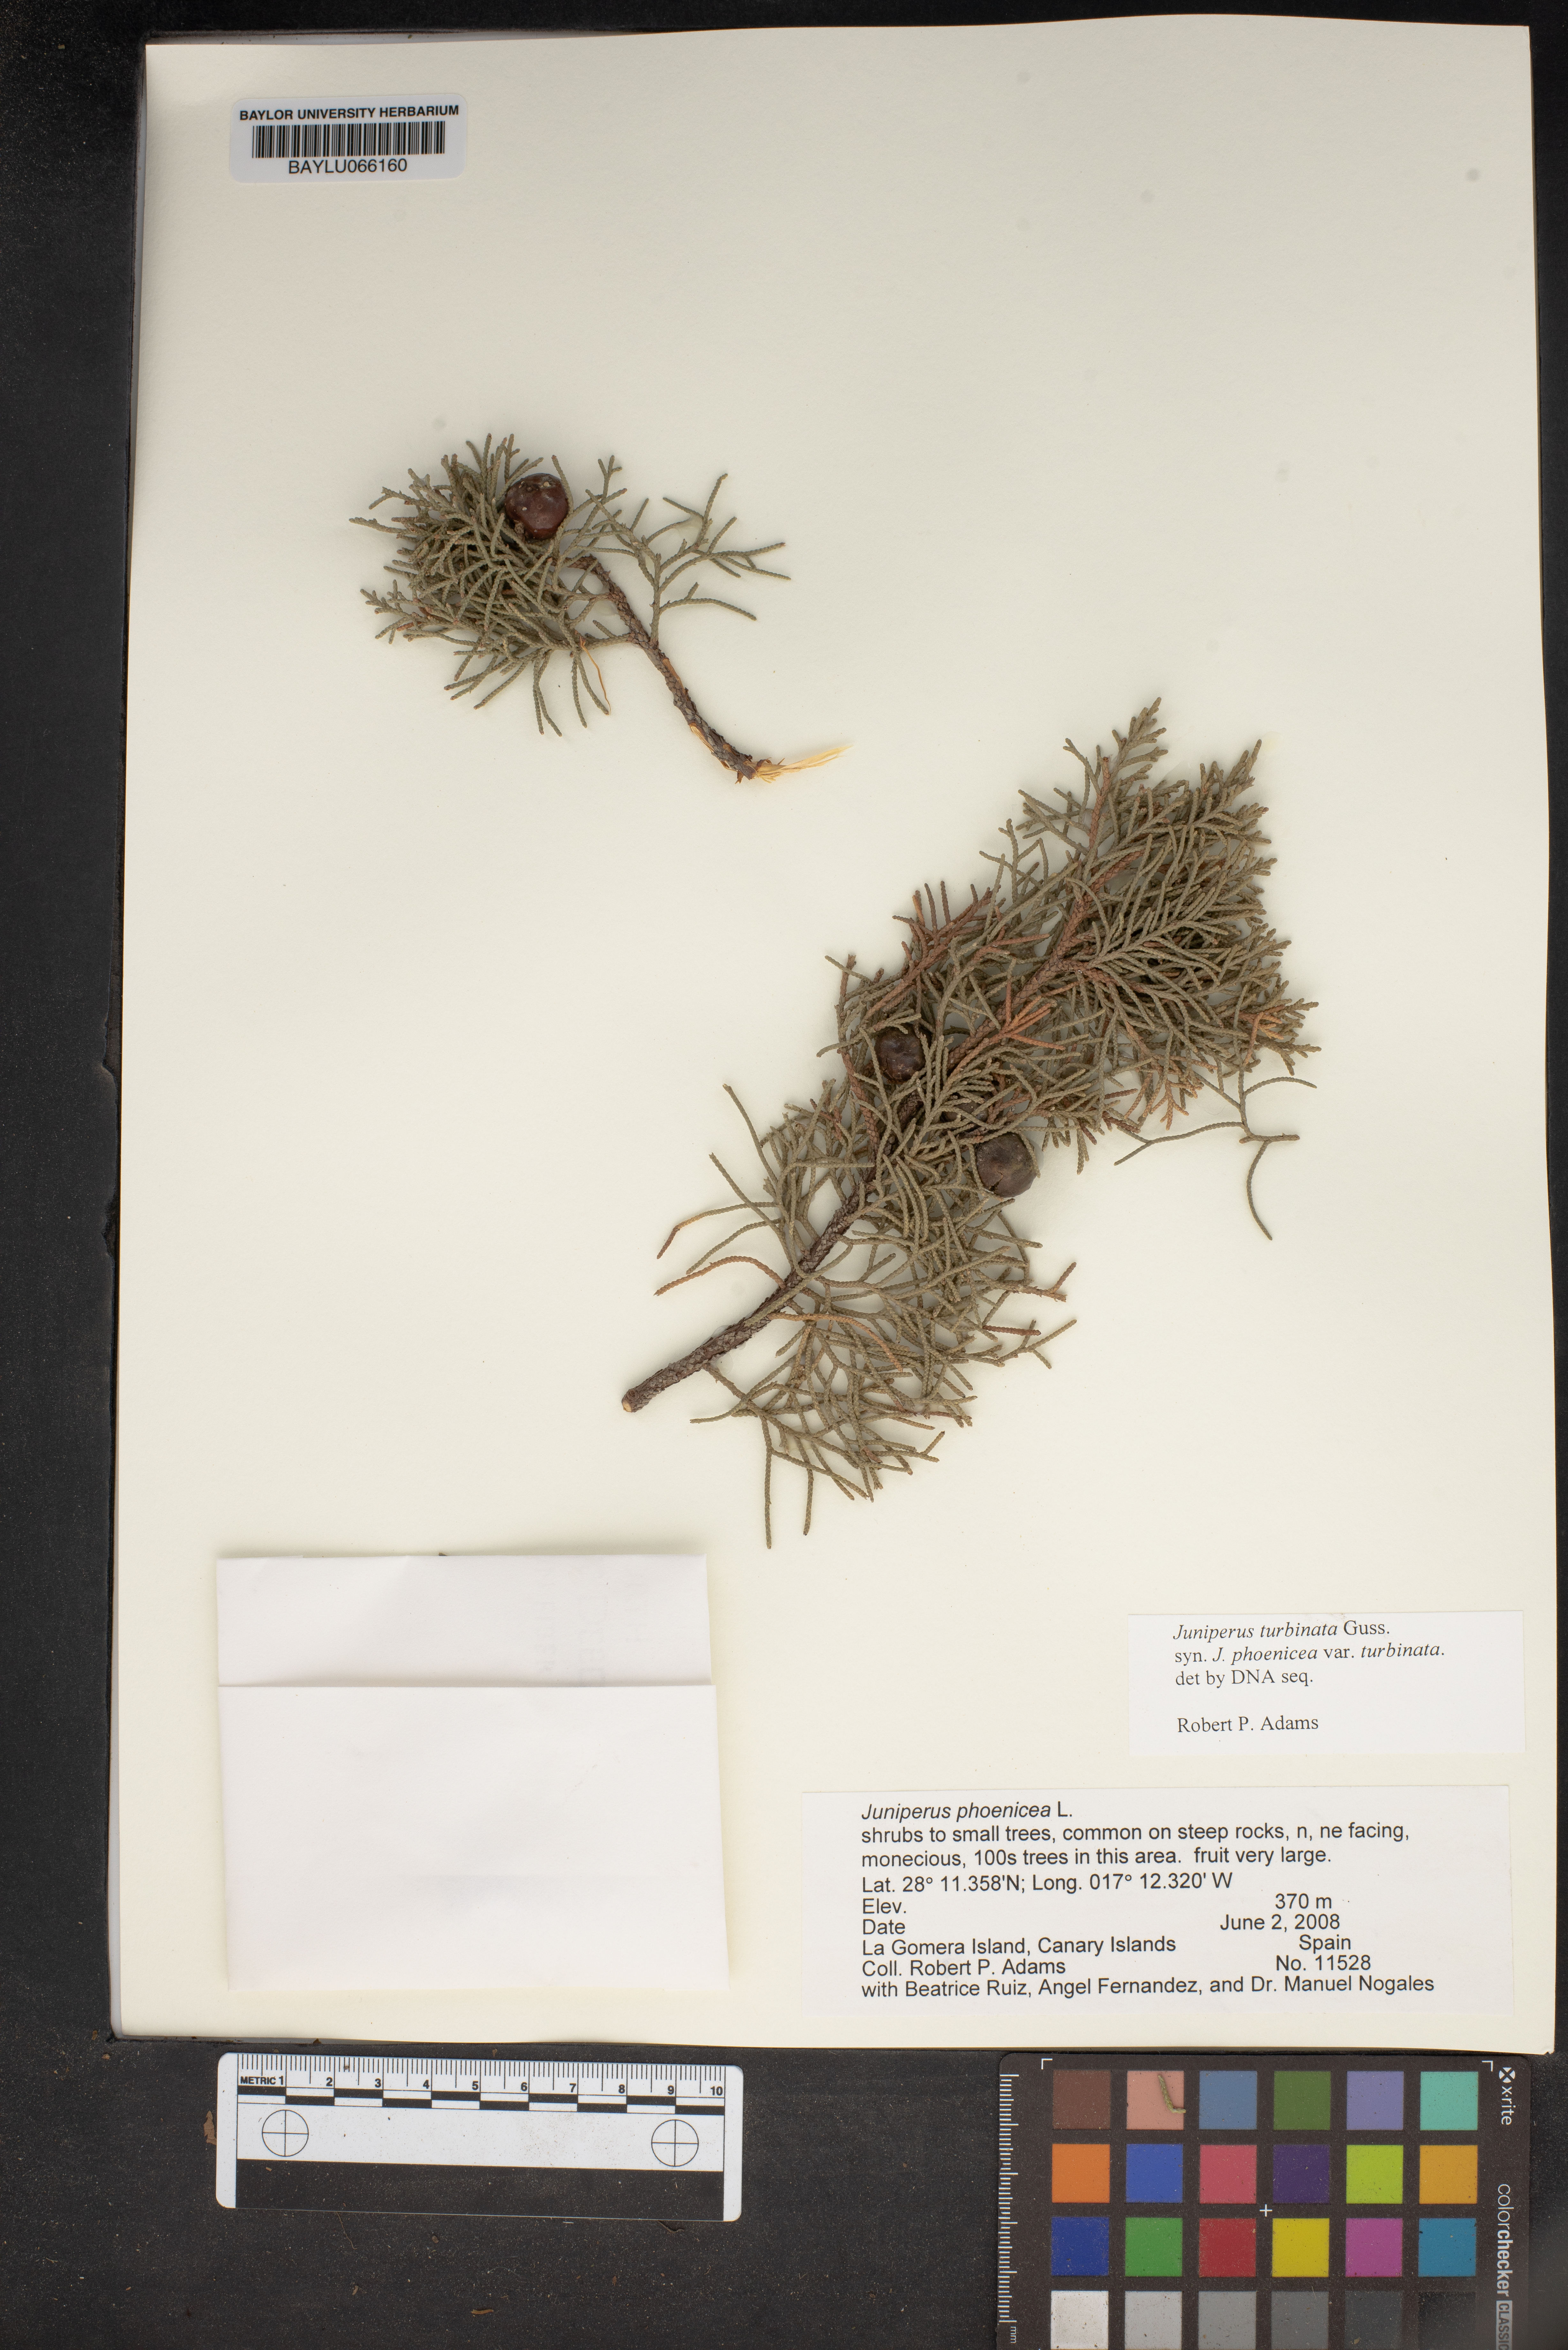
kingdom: Plantae
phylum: Tracheophyta
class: Pinopsida
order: Pinales
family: Cupressaceae
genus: Juniperus
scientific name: Juniperus phoenicea
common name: Phoenician juniper
